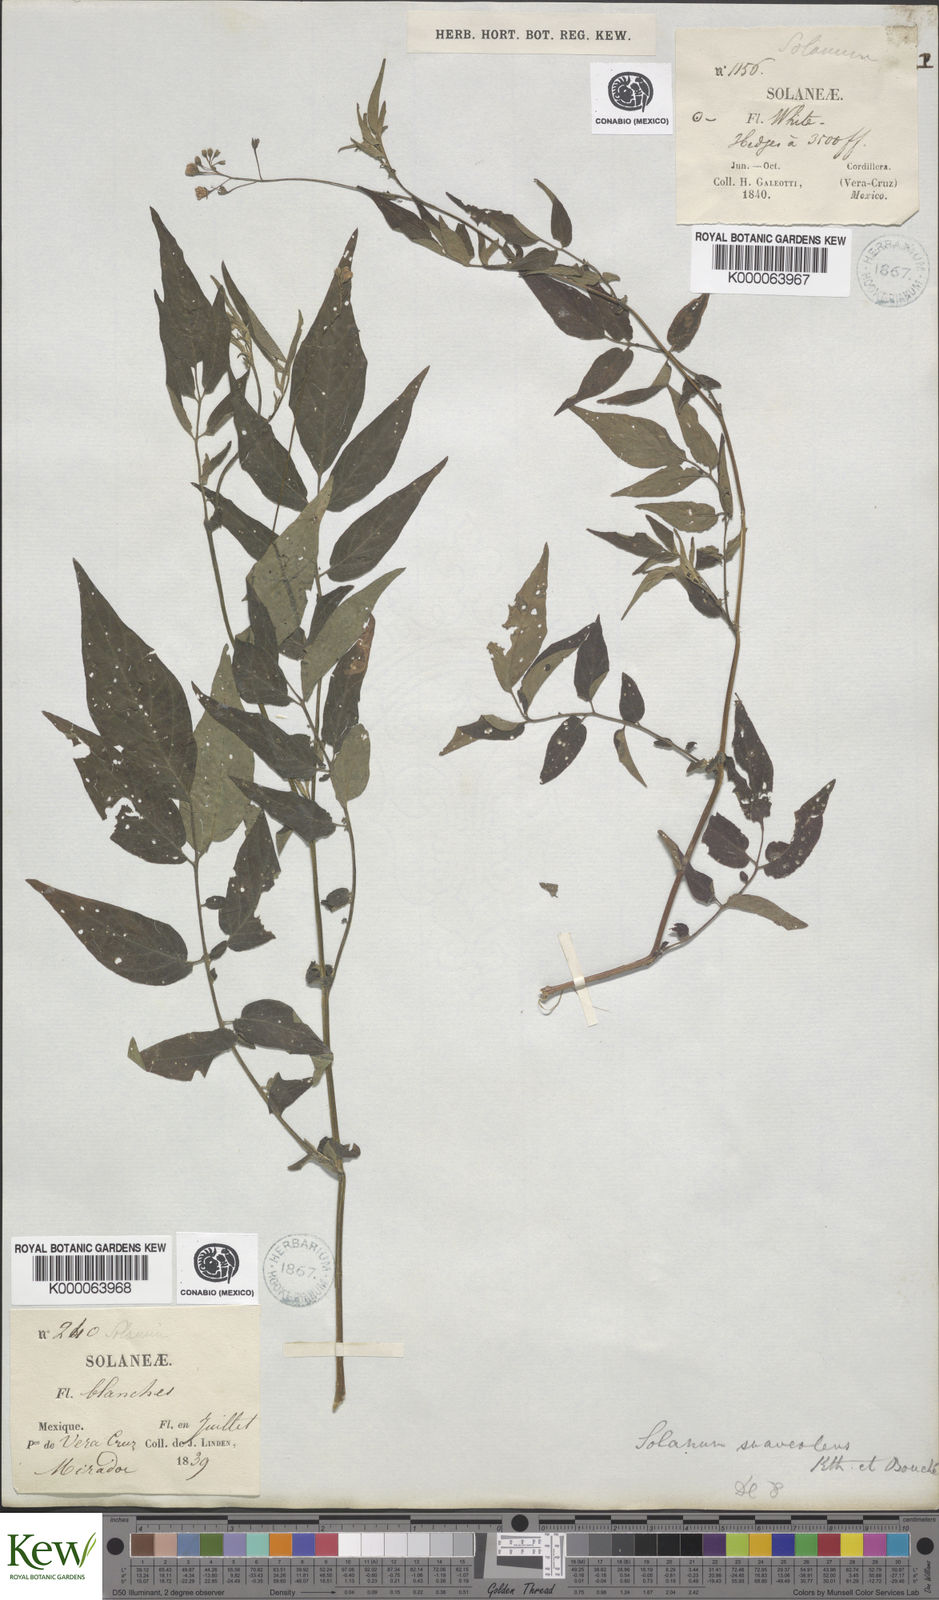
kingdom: Plantae
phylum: Tracheophyta
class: Magnoliopsida
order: Solanales
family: Solanaceae
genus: Solanum
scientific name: Solanum
